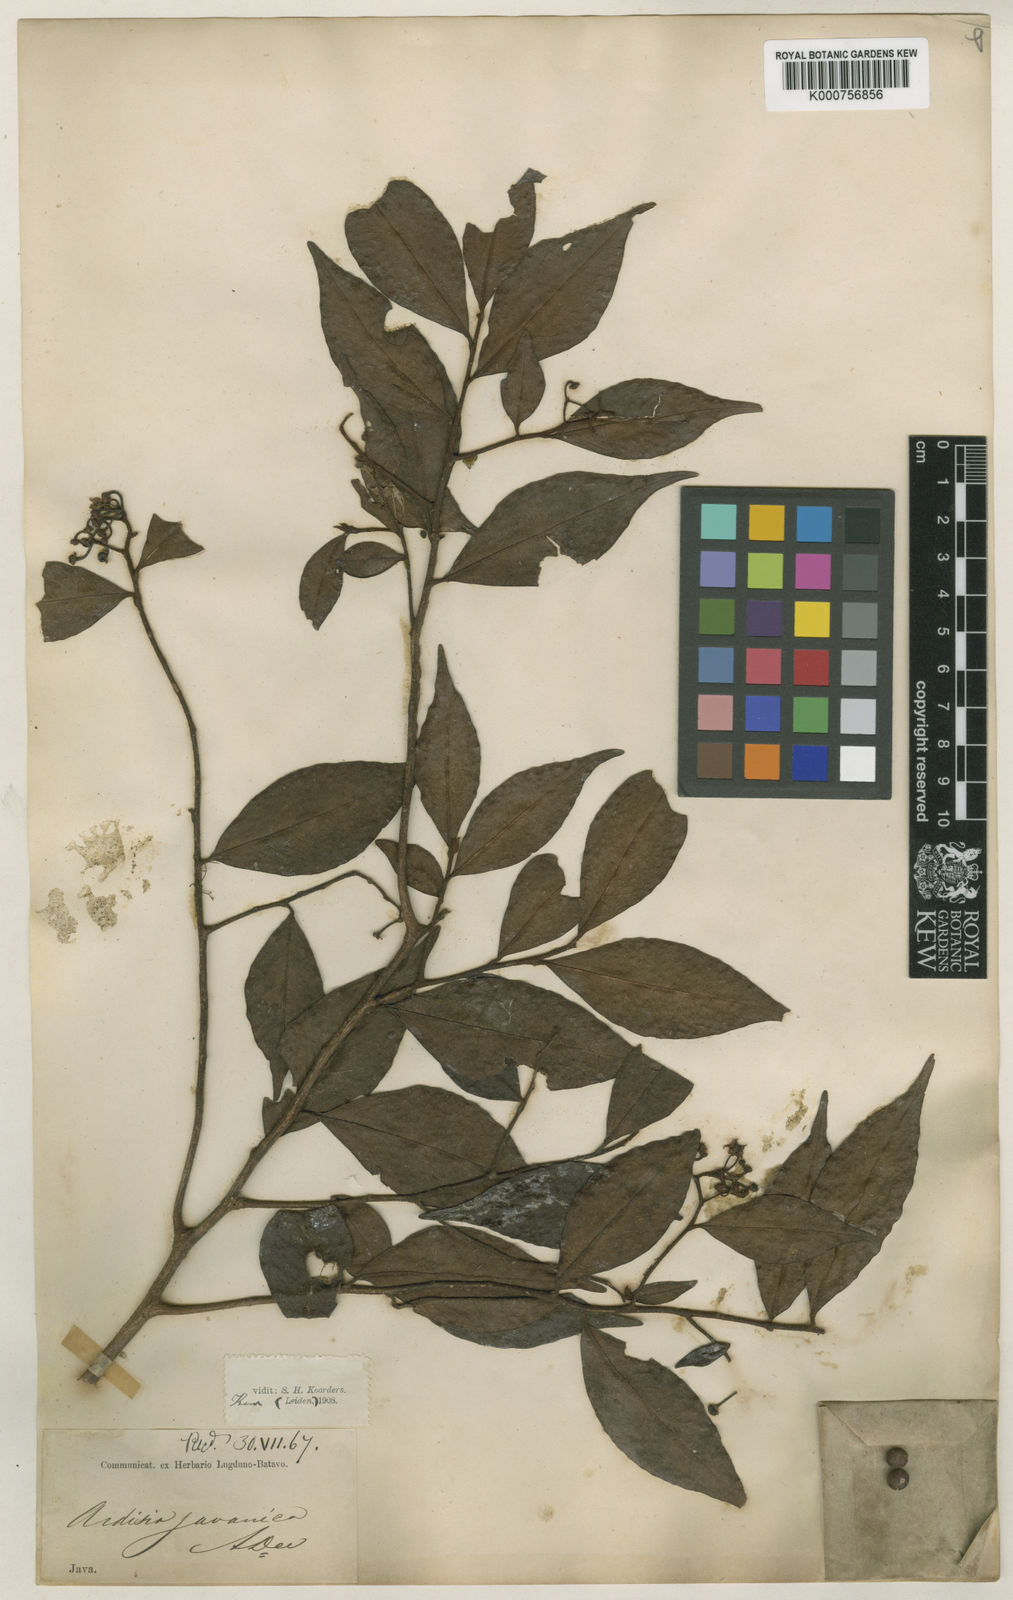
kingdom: Plantae
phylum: Tracheophyta
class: Magnoliopsida
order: Ericales
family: Primulaceae
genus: Ardisia
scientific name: Ardisia javanica
